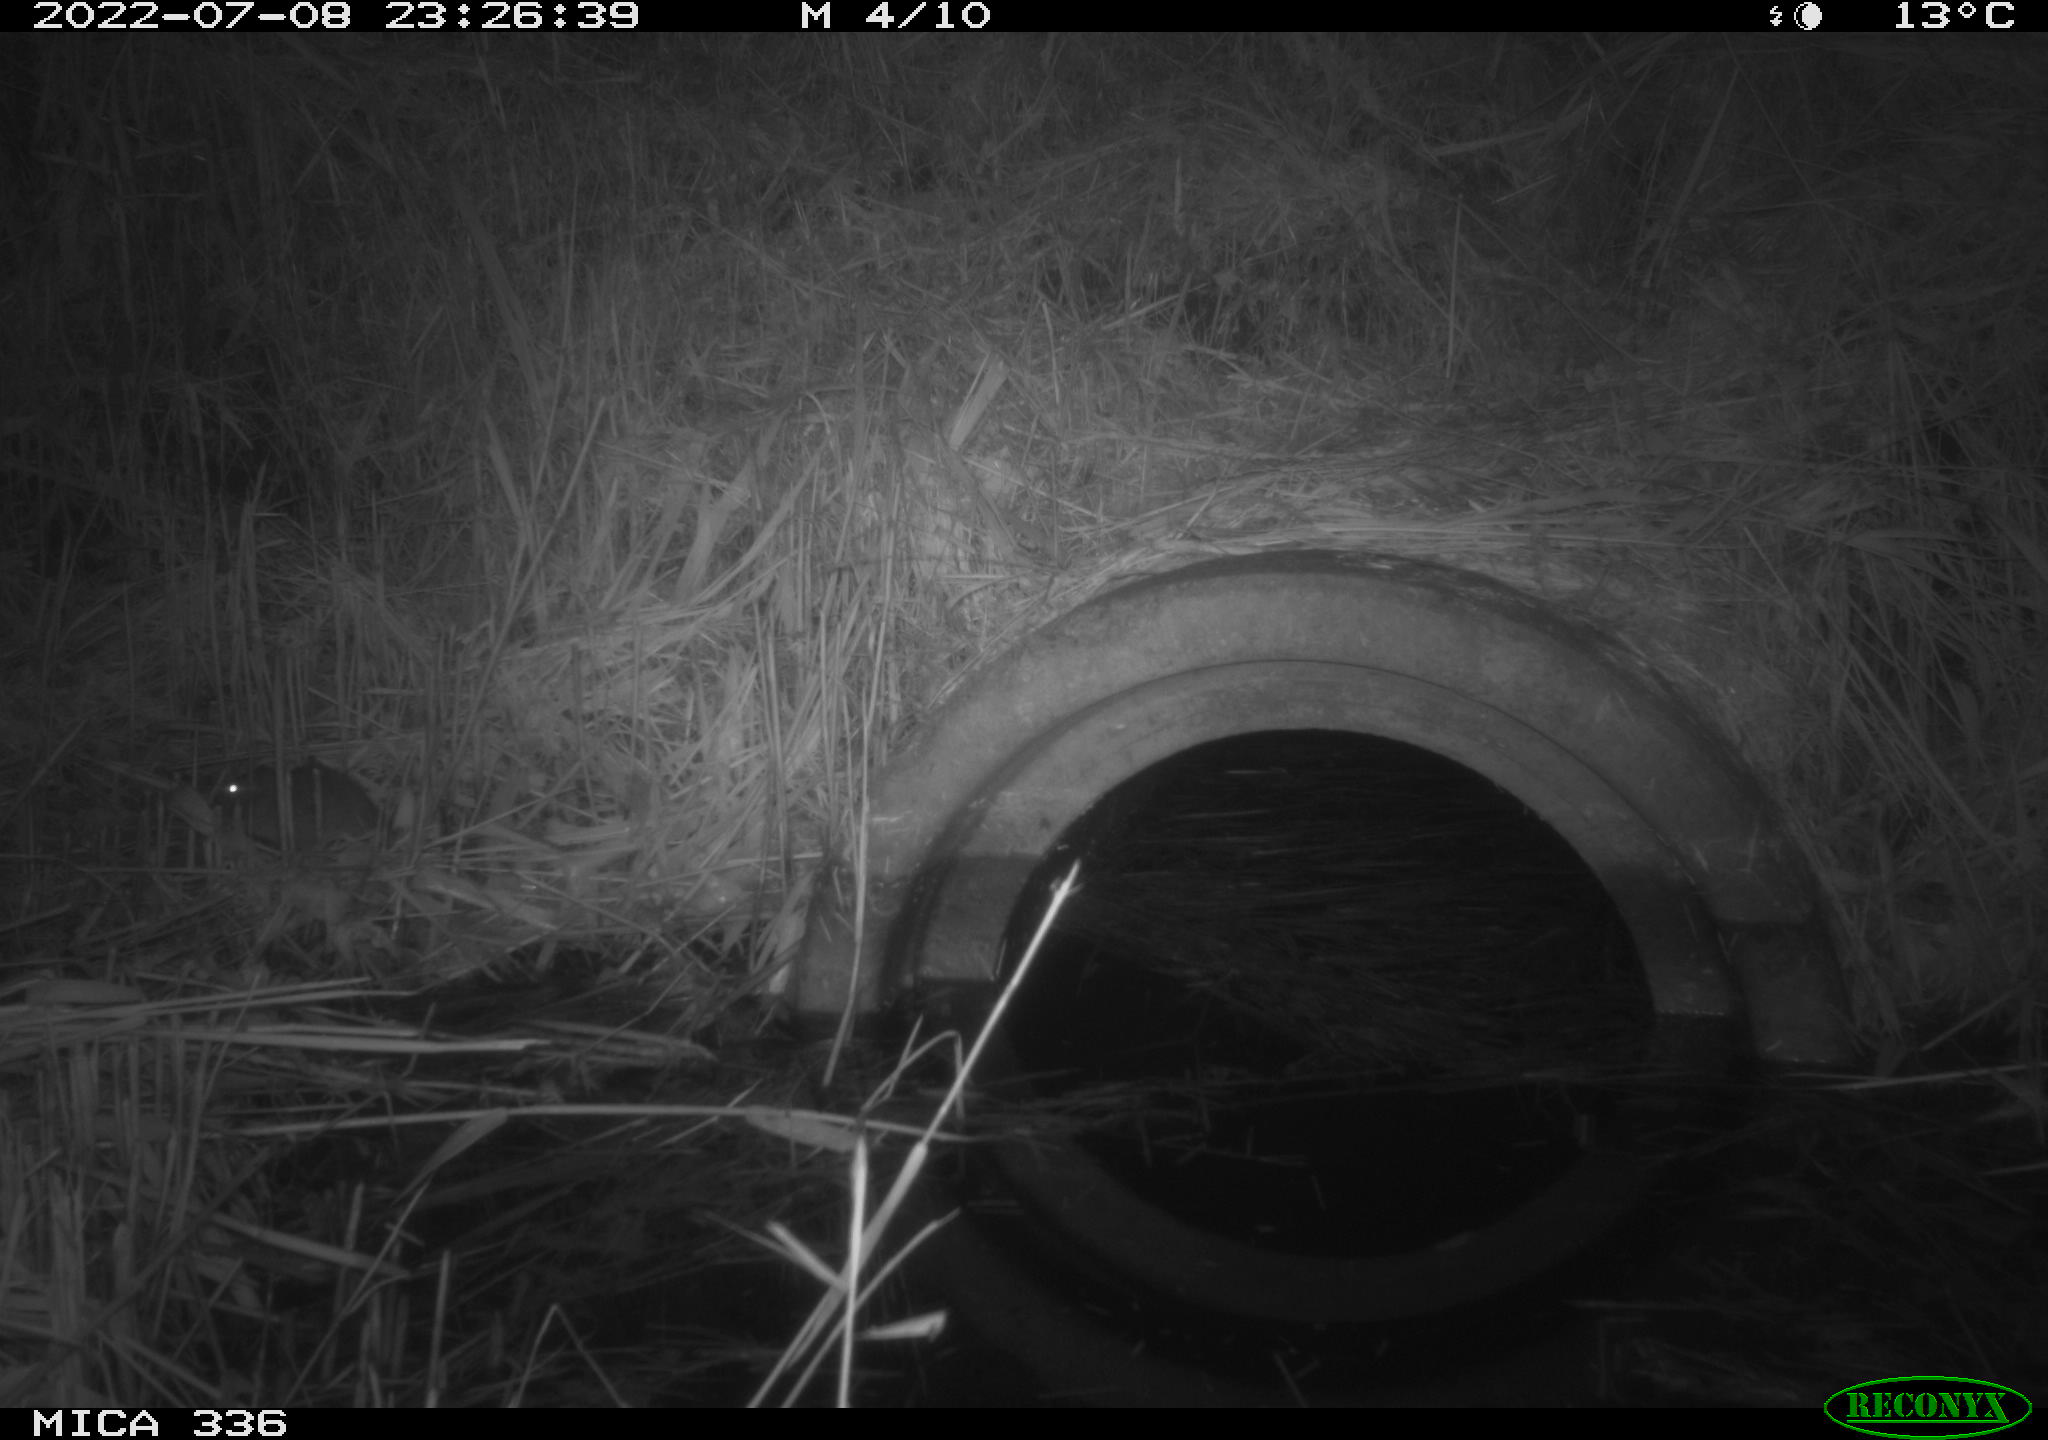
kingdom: Animalia
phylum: Chordata
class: Mammalia
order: Rodentia
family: Muridae
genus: Rattus
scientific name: Rattus norvegicus
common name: Brown rat
